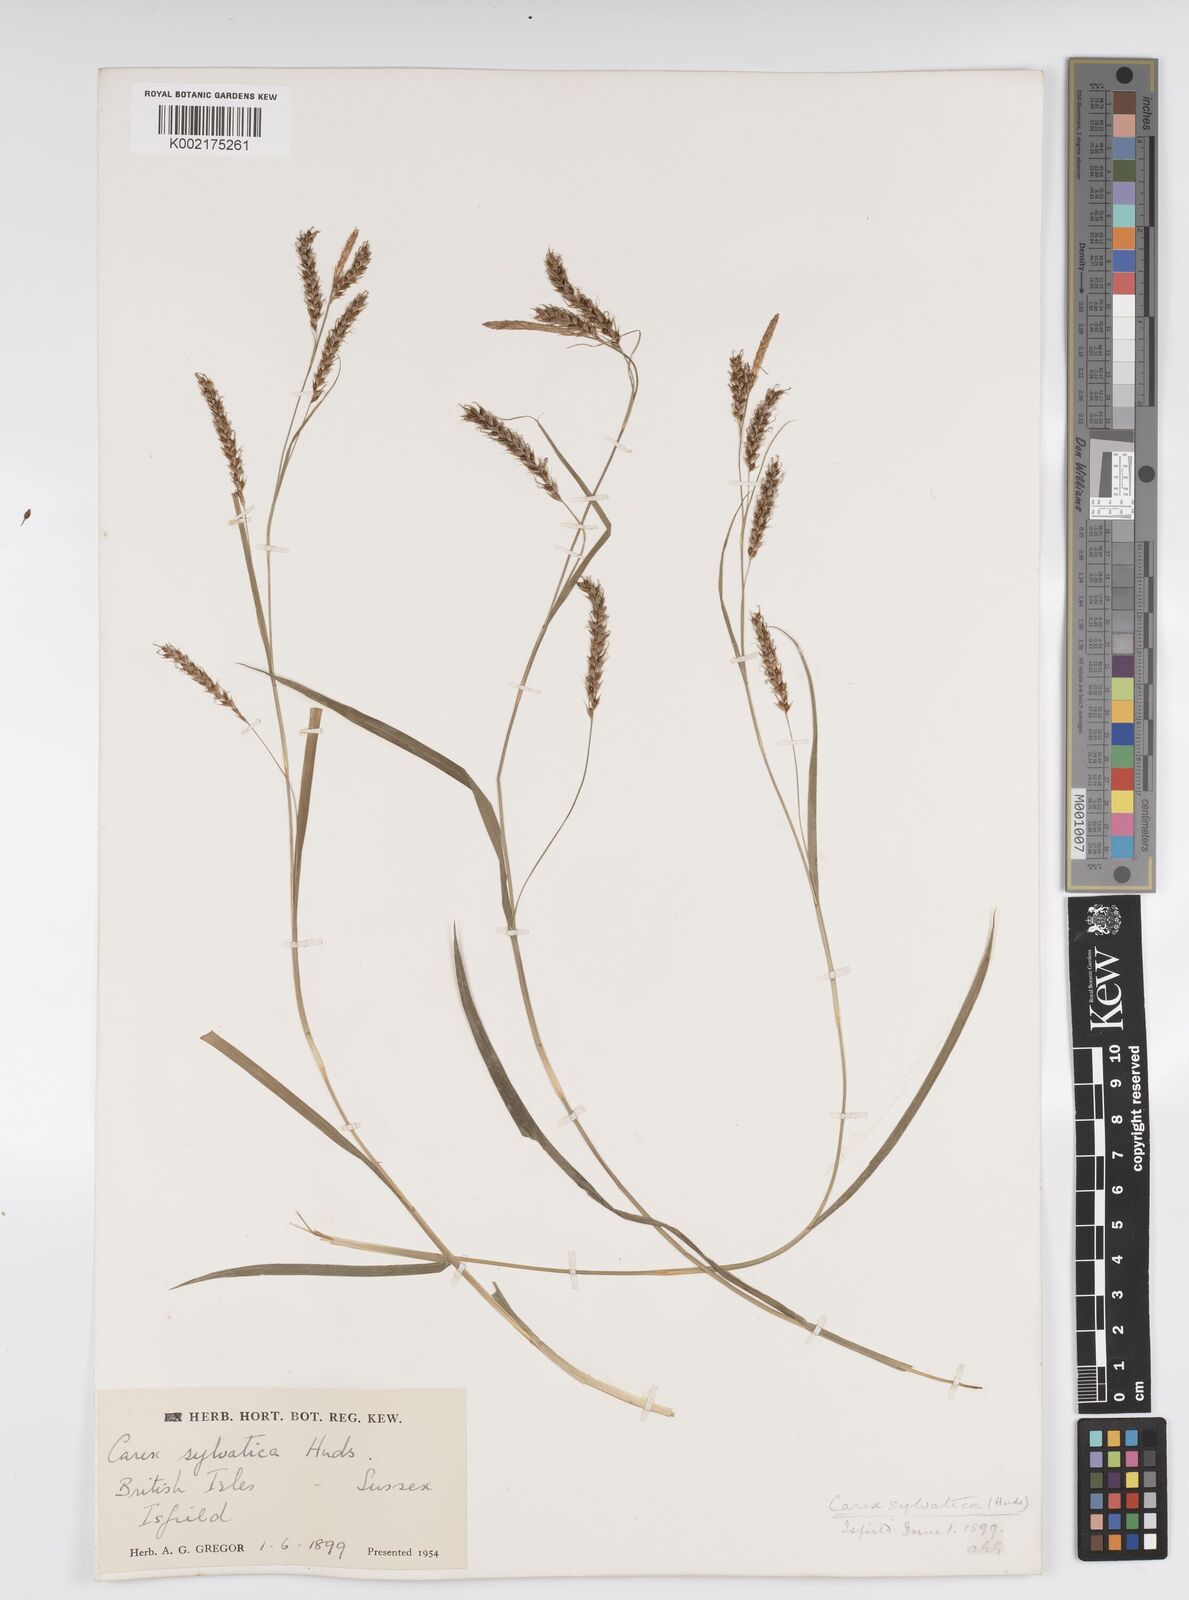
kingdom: Plantae
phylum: Tracheophyta
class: Liliopsida
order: Poales
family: Cyperaceae
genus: Carex
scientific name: Carex sylvatica
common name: Wood-sedge
